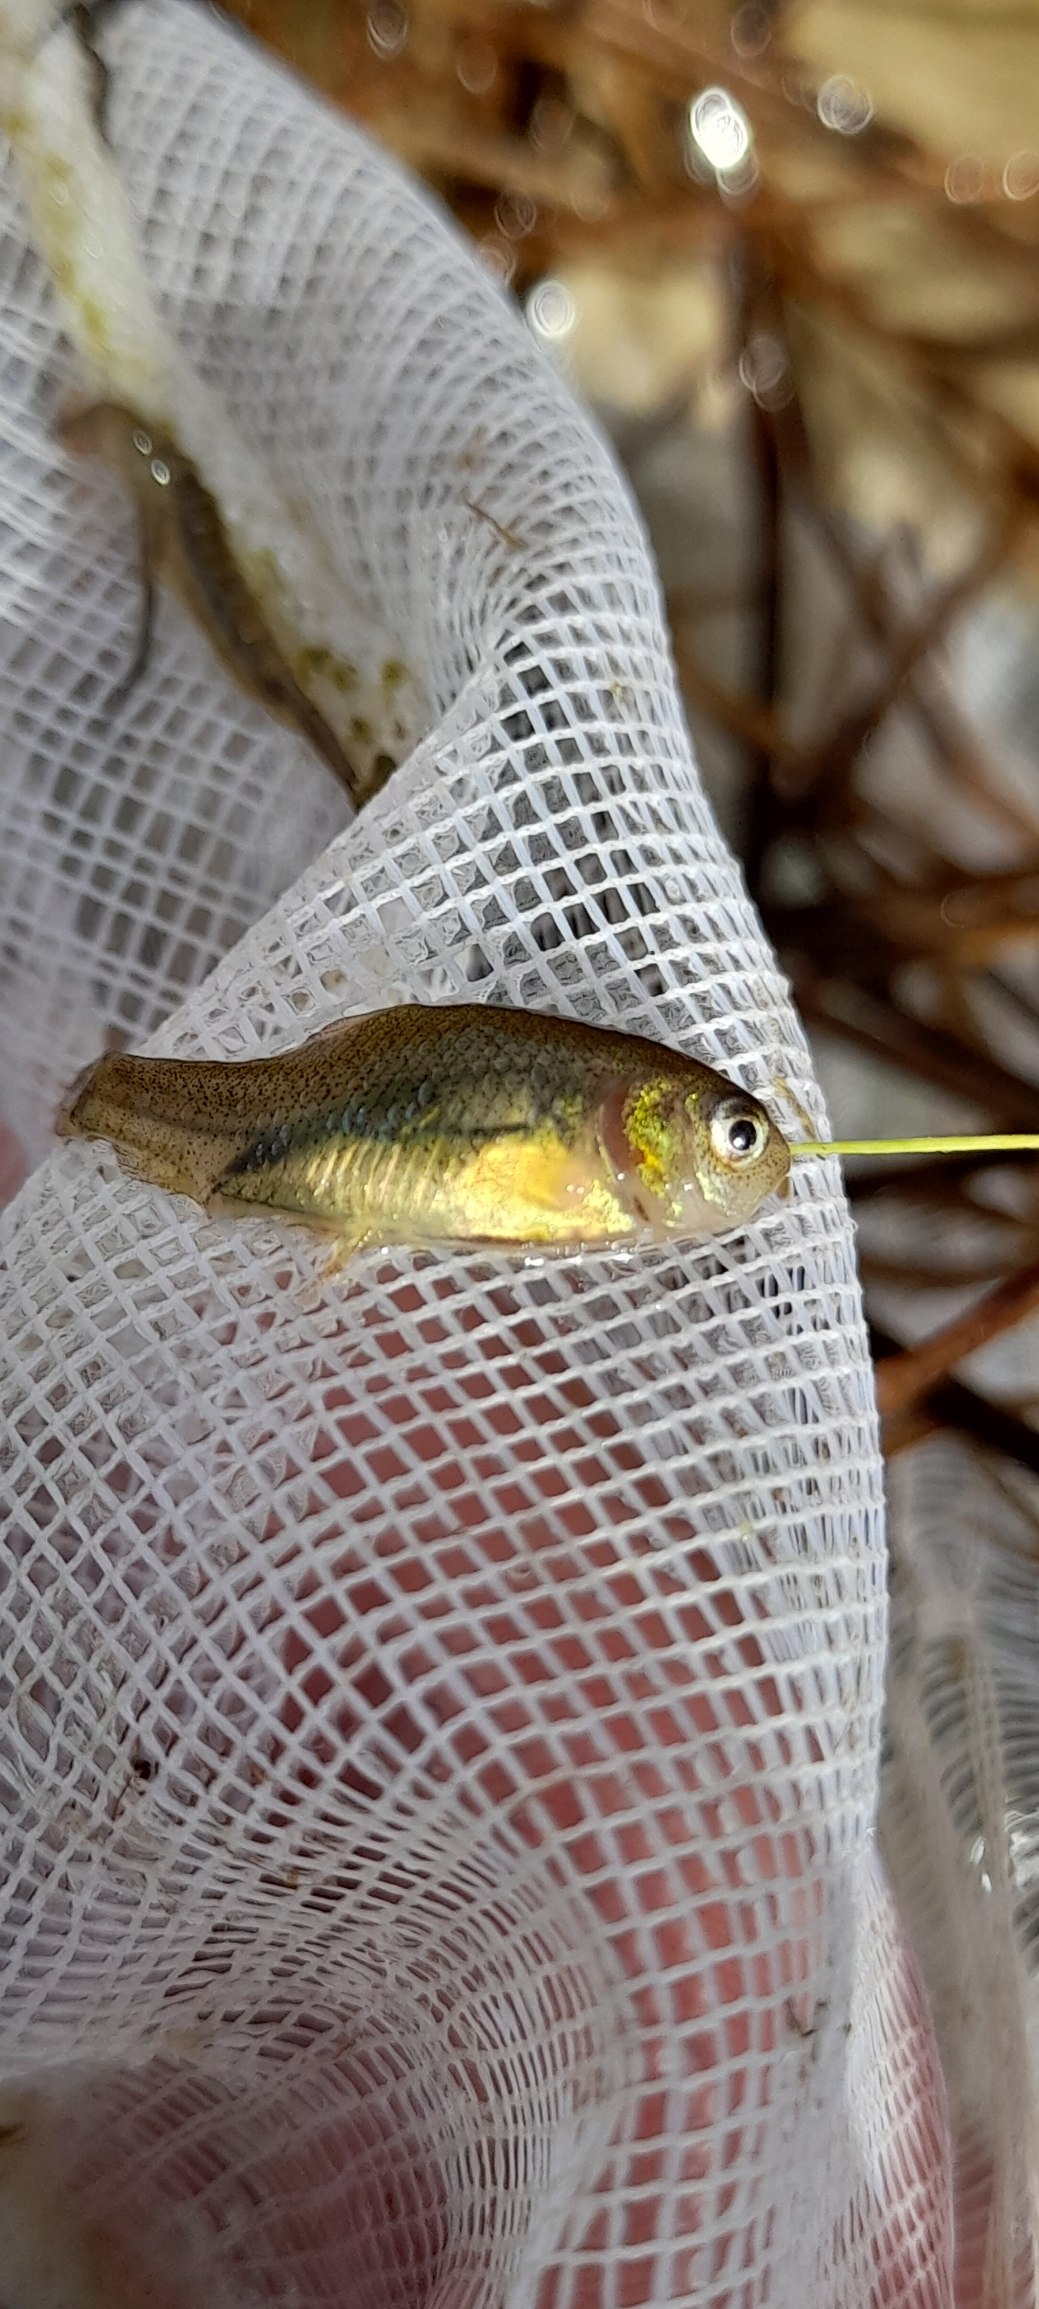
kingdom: Animalia
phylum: Chordata
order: Cypriniformes
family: Cyprinidae
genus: Carassius
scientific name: Carassius carassius
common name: Karusse
